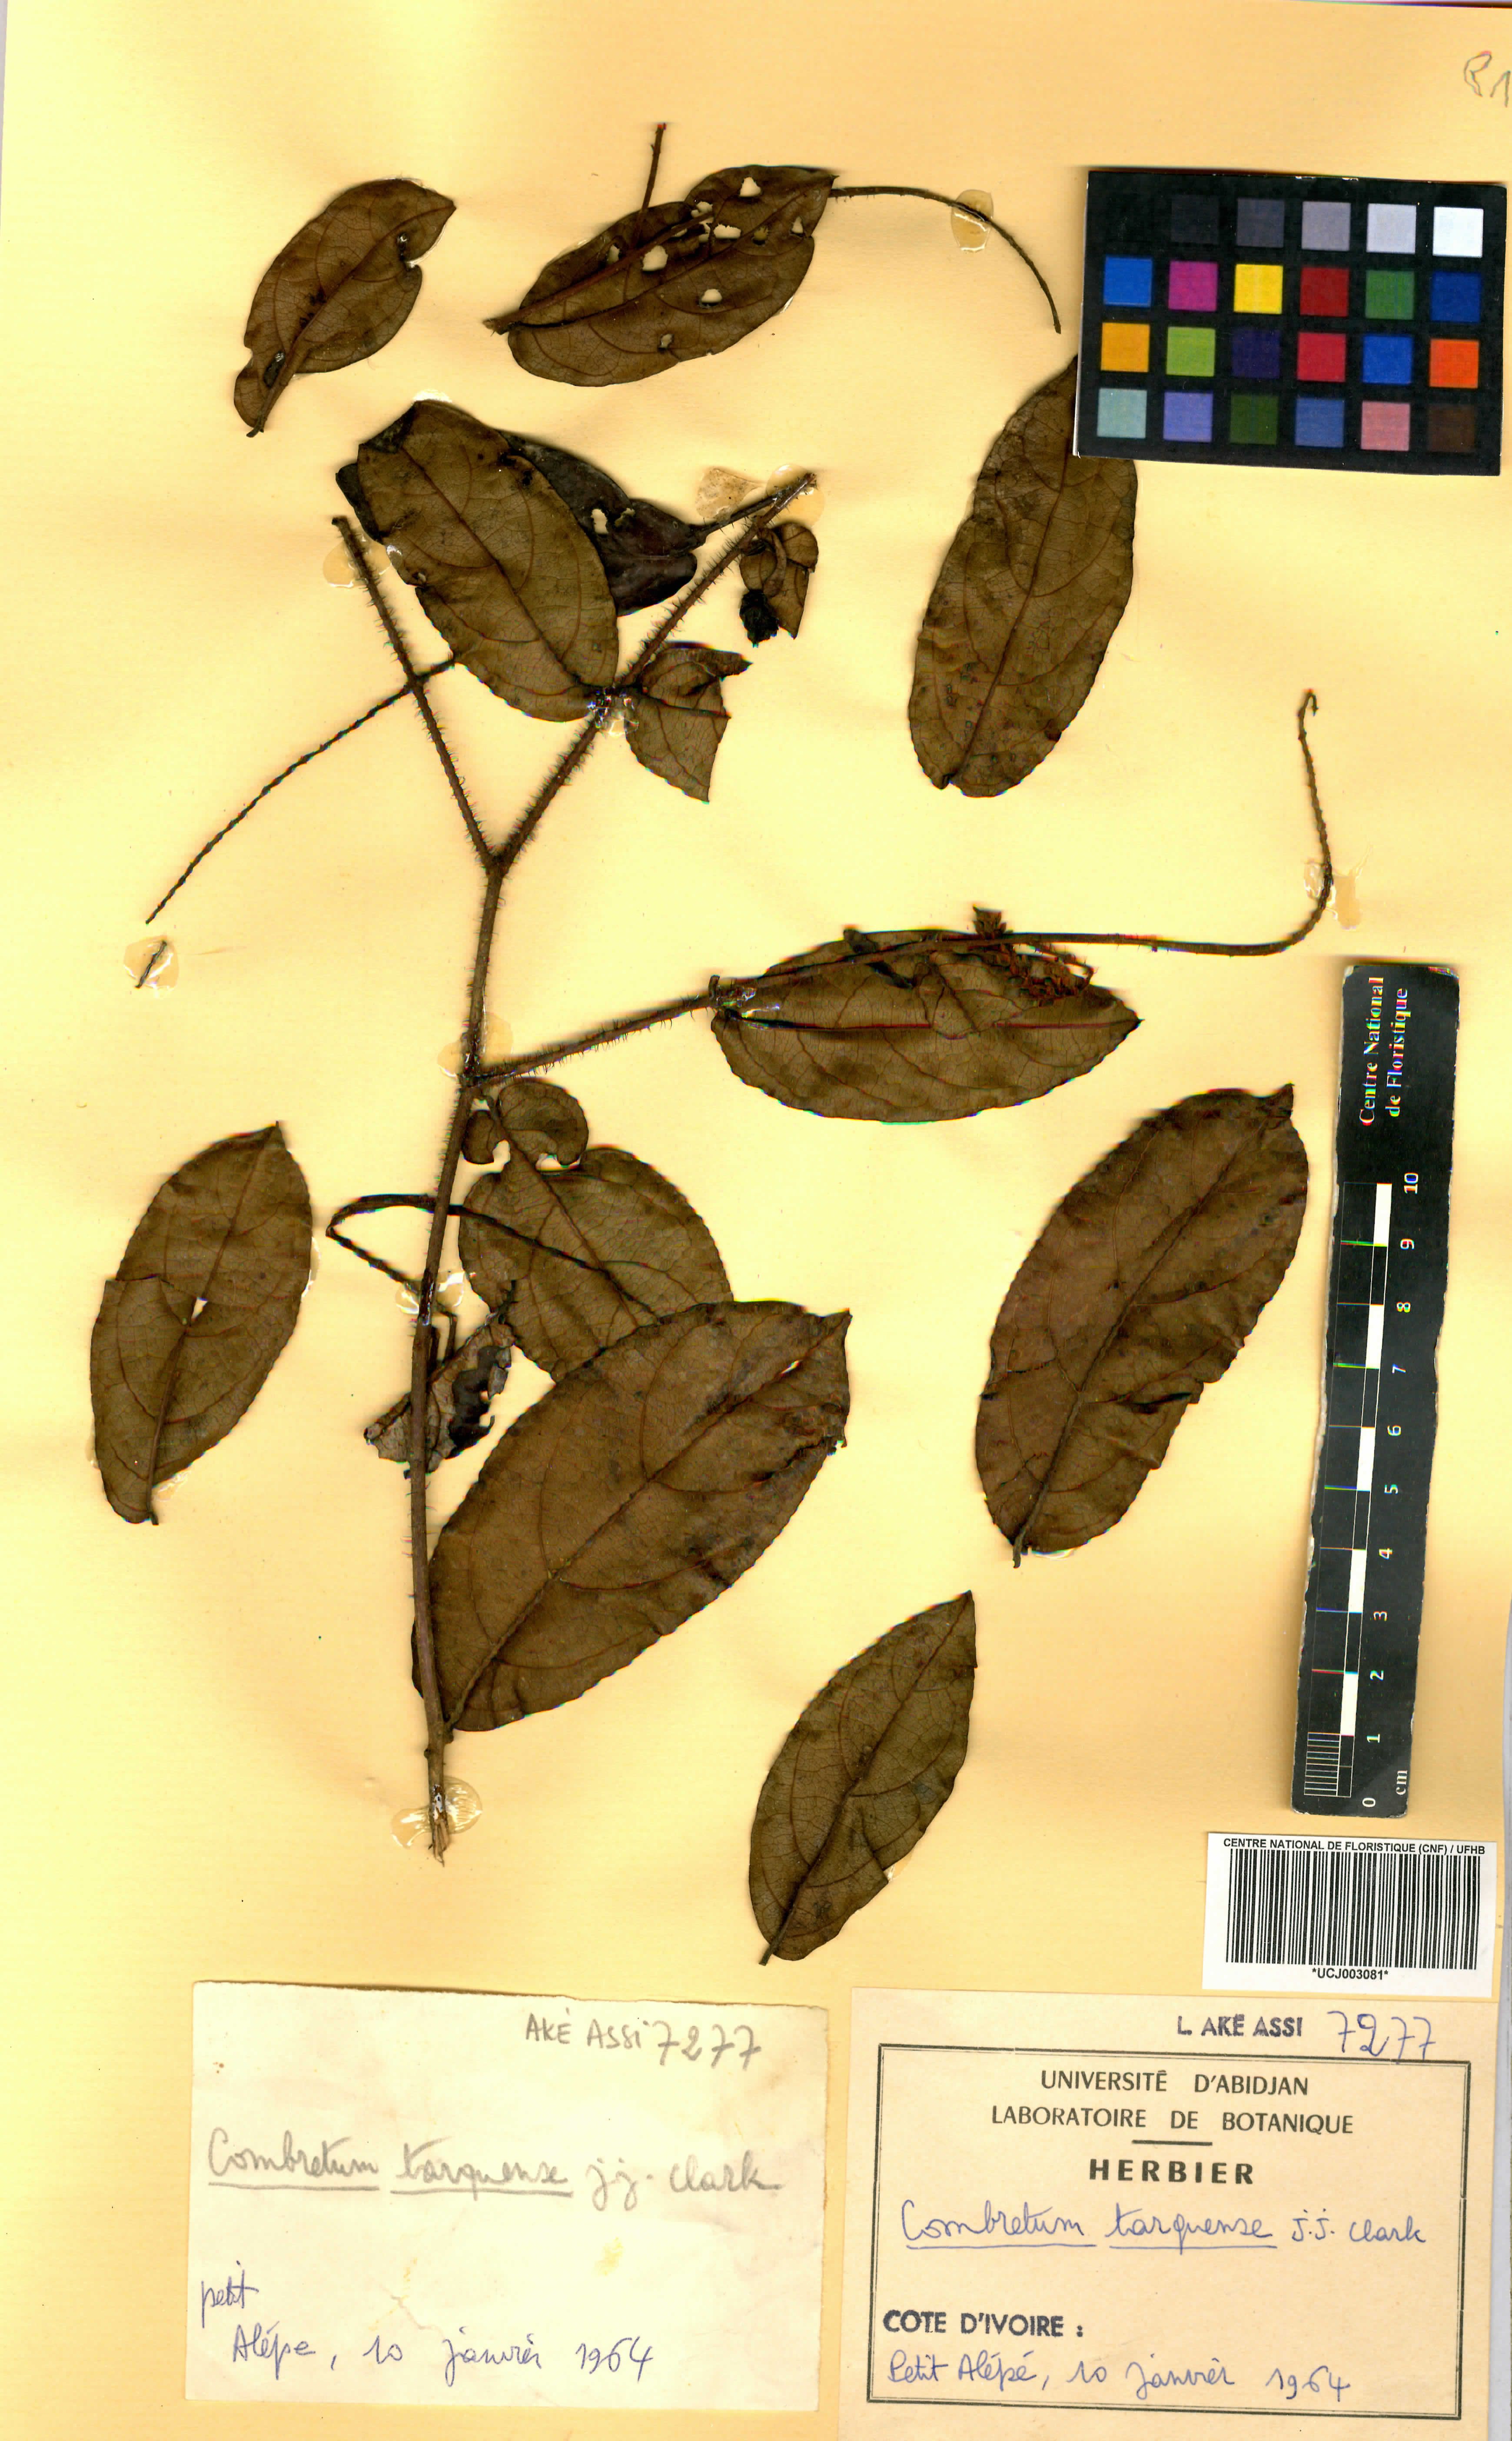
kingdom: Plantae
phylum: Tracheophyta
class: Magnoliopsida
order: Myrtales
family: Combretaceae
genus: Combretum
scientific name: Combretum tarquense
